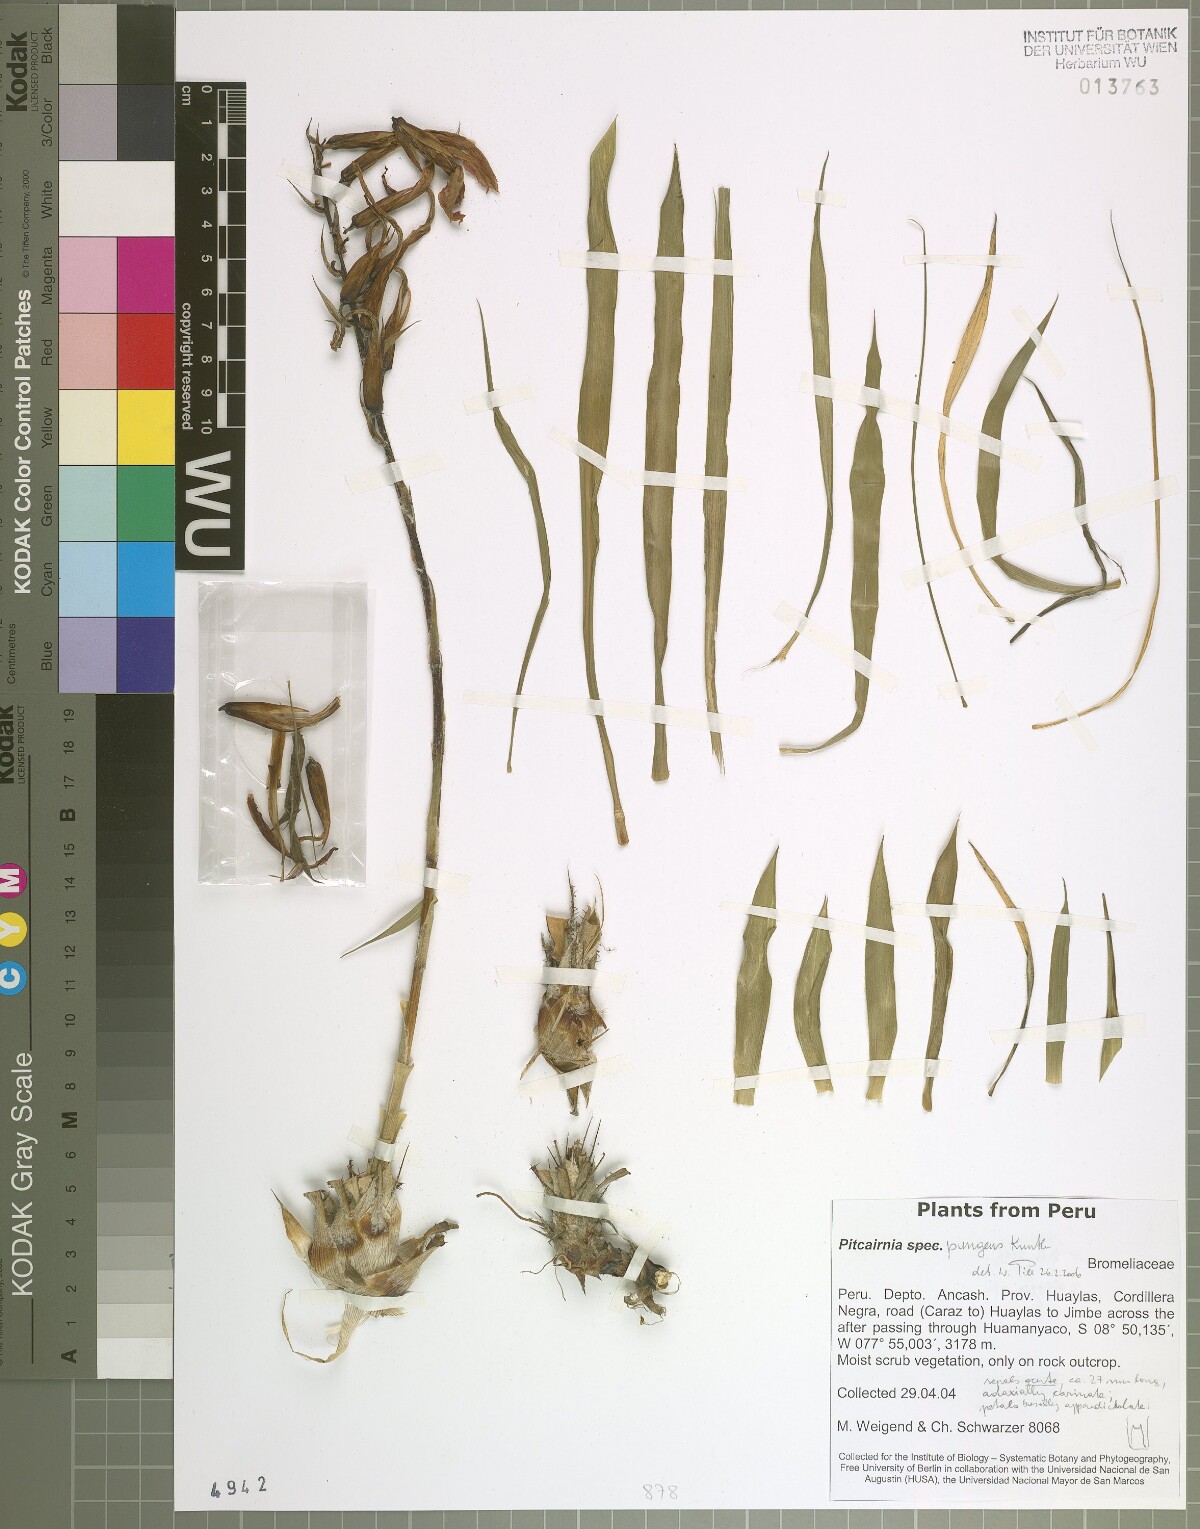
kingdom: Plantae
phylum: Tracheophyta
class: Liliopsida
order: Poales
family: Bromeliaceae
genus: Pitcairnia
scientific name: Pitcairnia pungens
